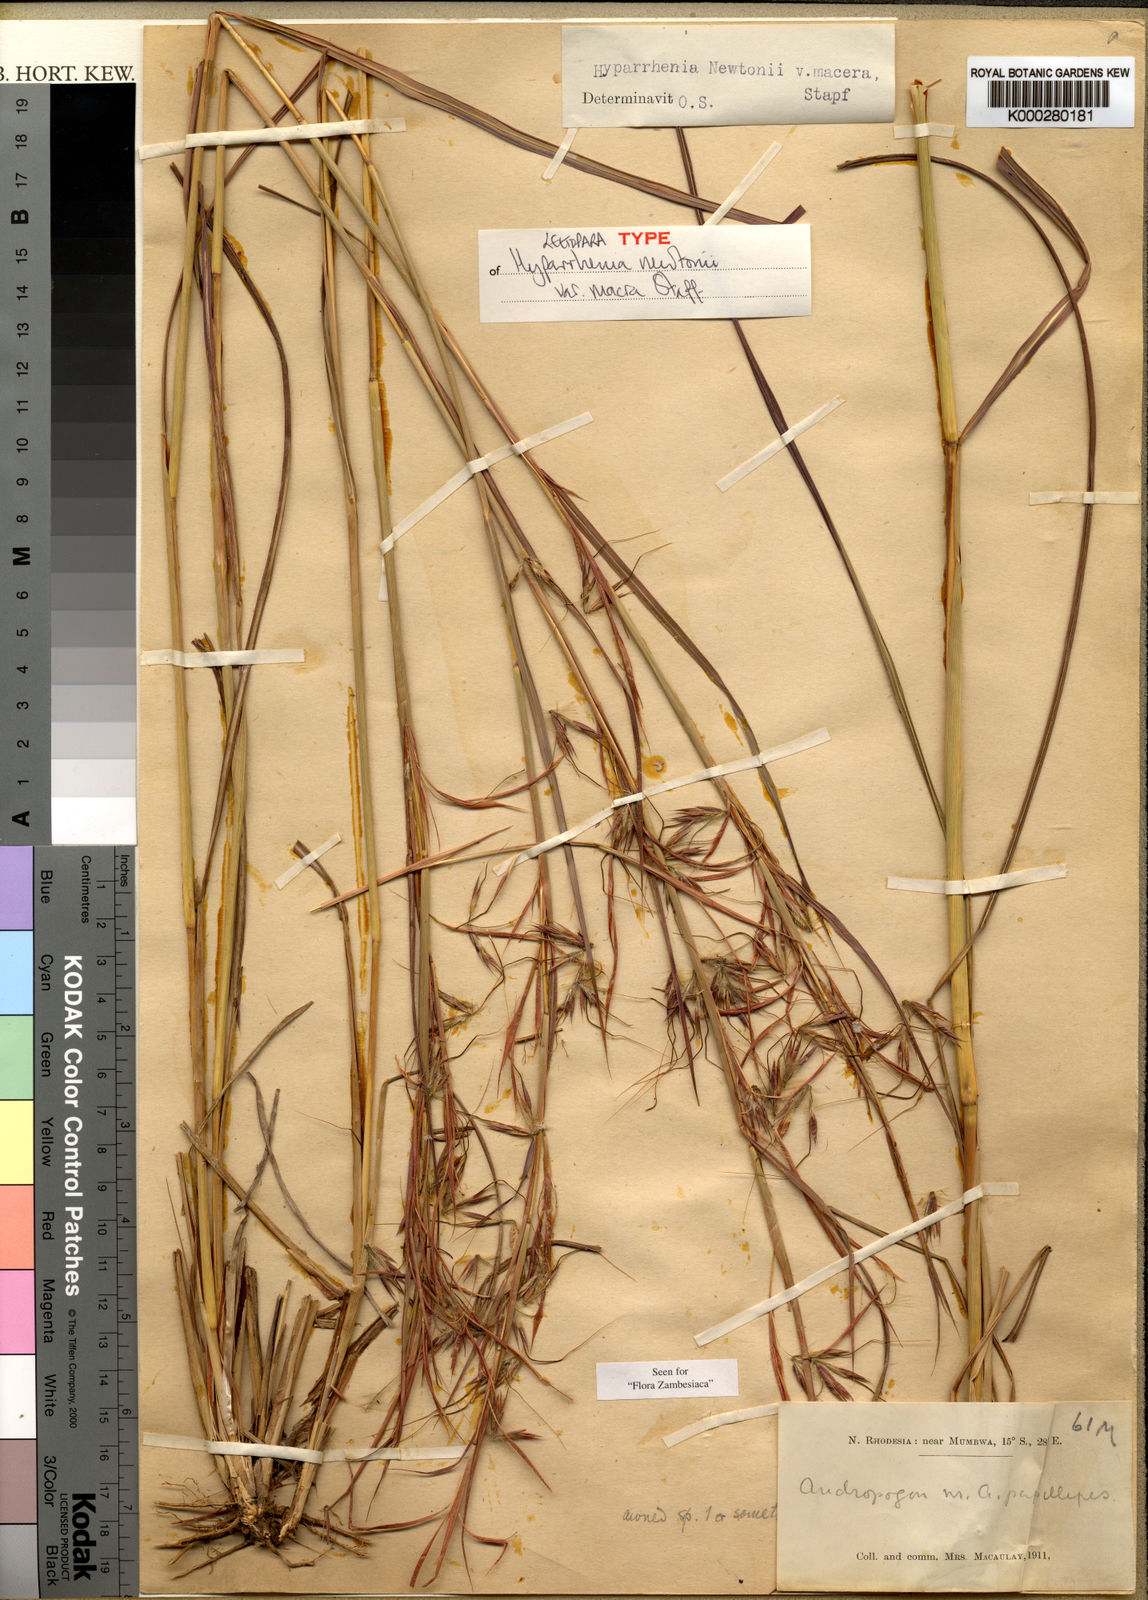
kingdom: Plantae
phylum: Tracheophyta
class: Liliopsida
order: Poales
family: Poaceae
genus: Hyparrhenia
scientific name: Hyparrhenia newtonii
